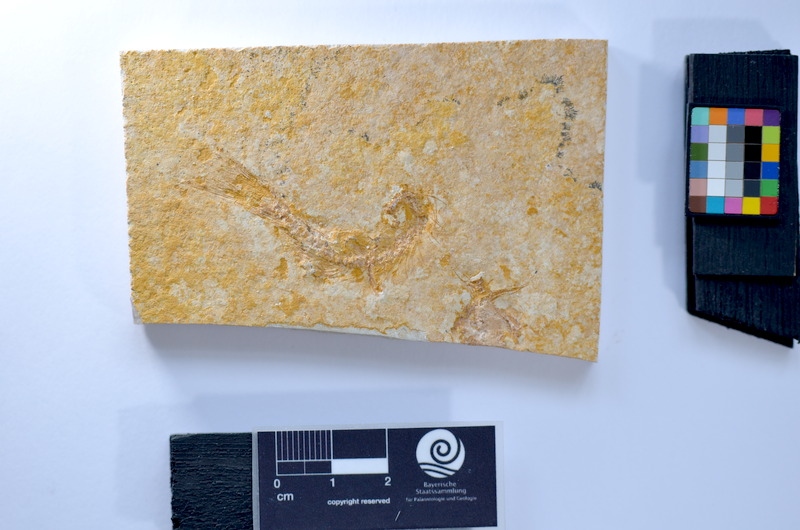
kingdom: Animalia
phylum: Chordata
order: Salmoniformes
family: Orthogonikleithridae
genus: Leptolepides
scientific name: Leptolepides
